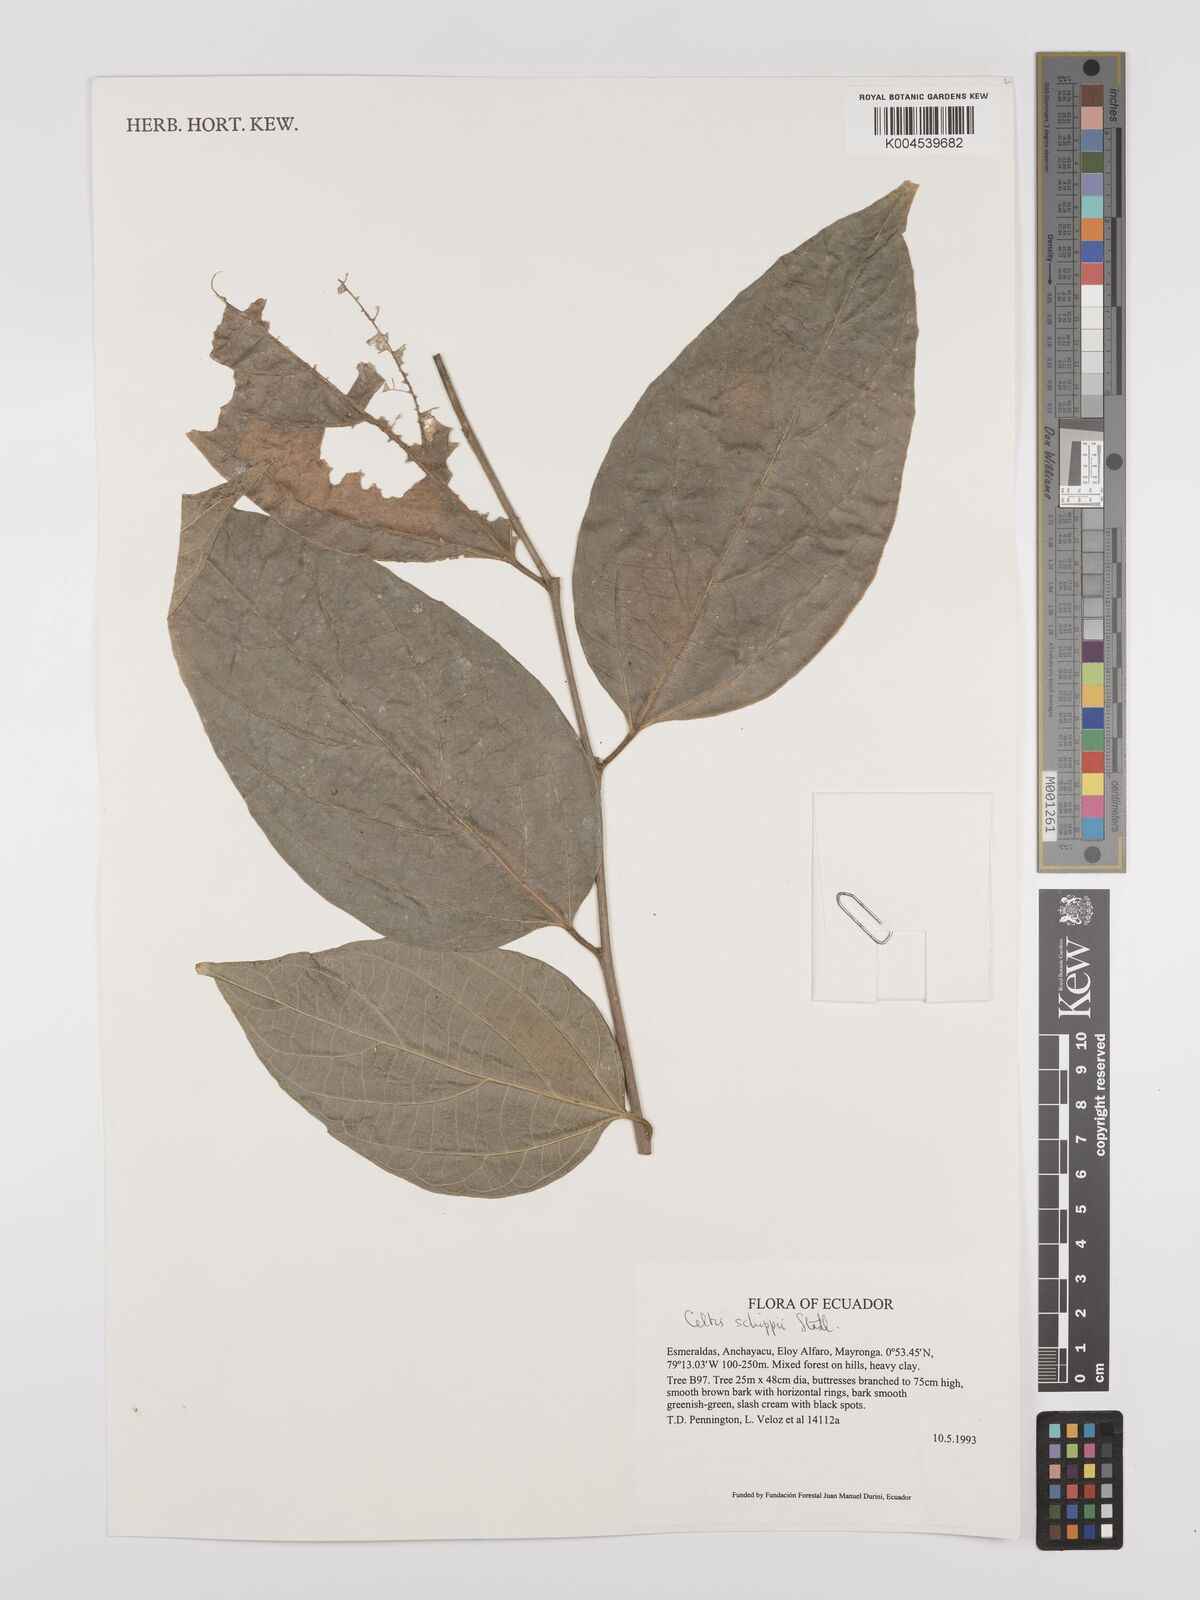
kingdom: Plantae
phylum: Tracheophyta
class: Magnoliopsida
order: Rosales
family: Cannabaceae
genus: Celtis
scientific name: Celtis schippii
